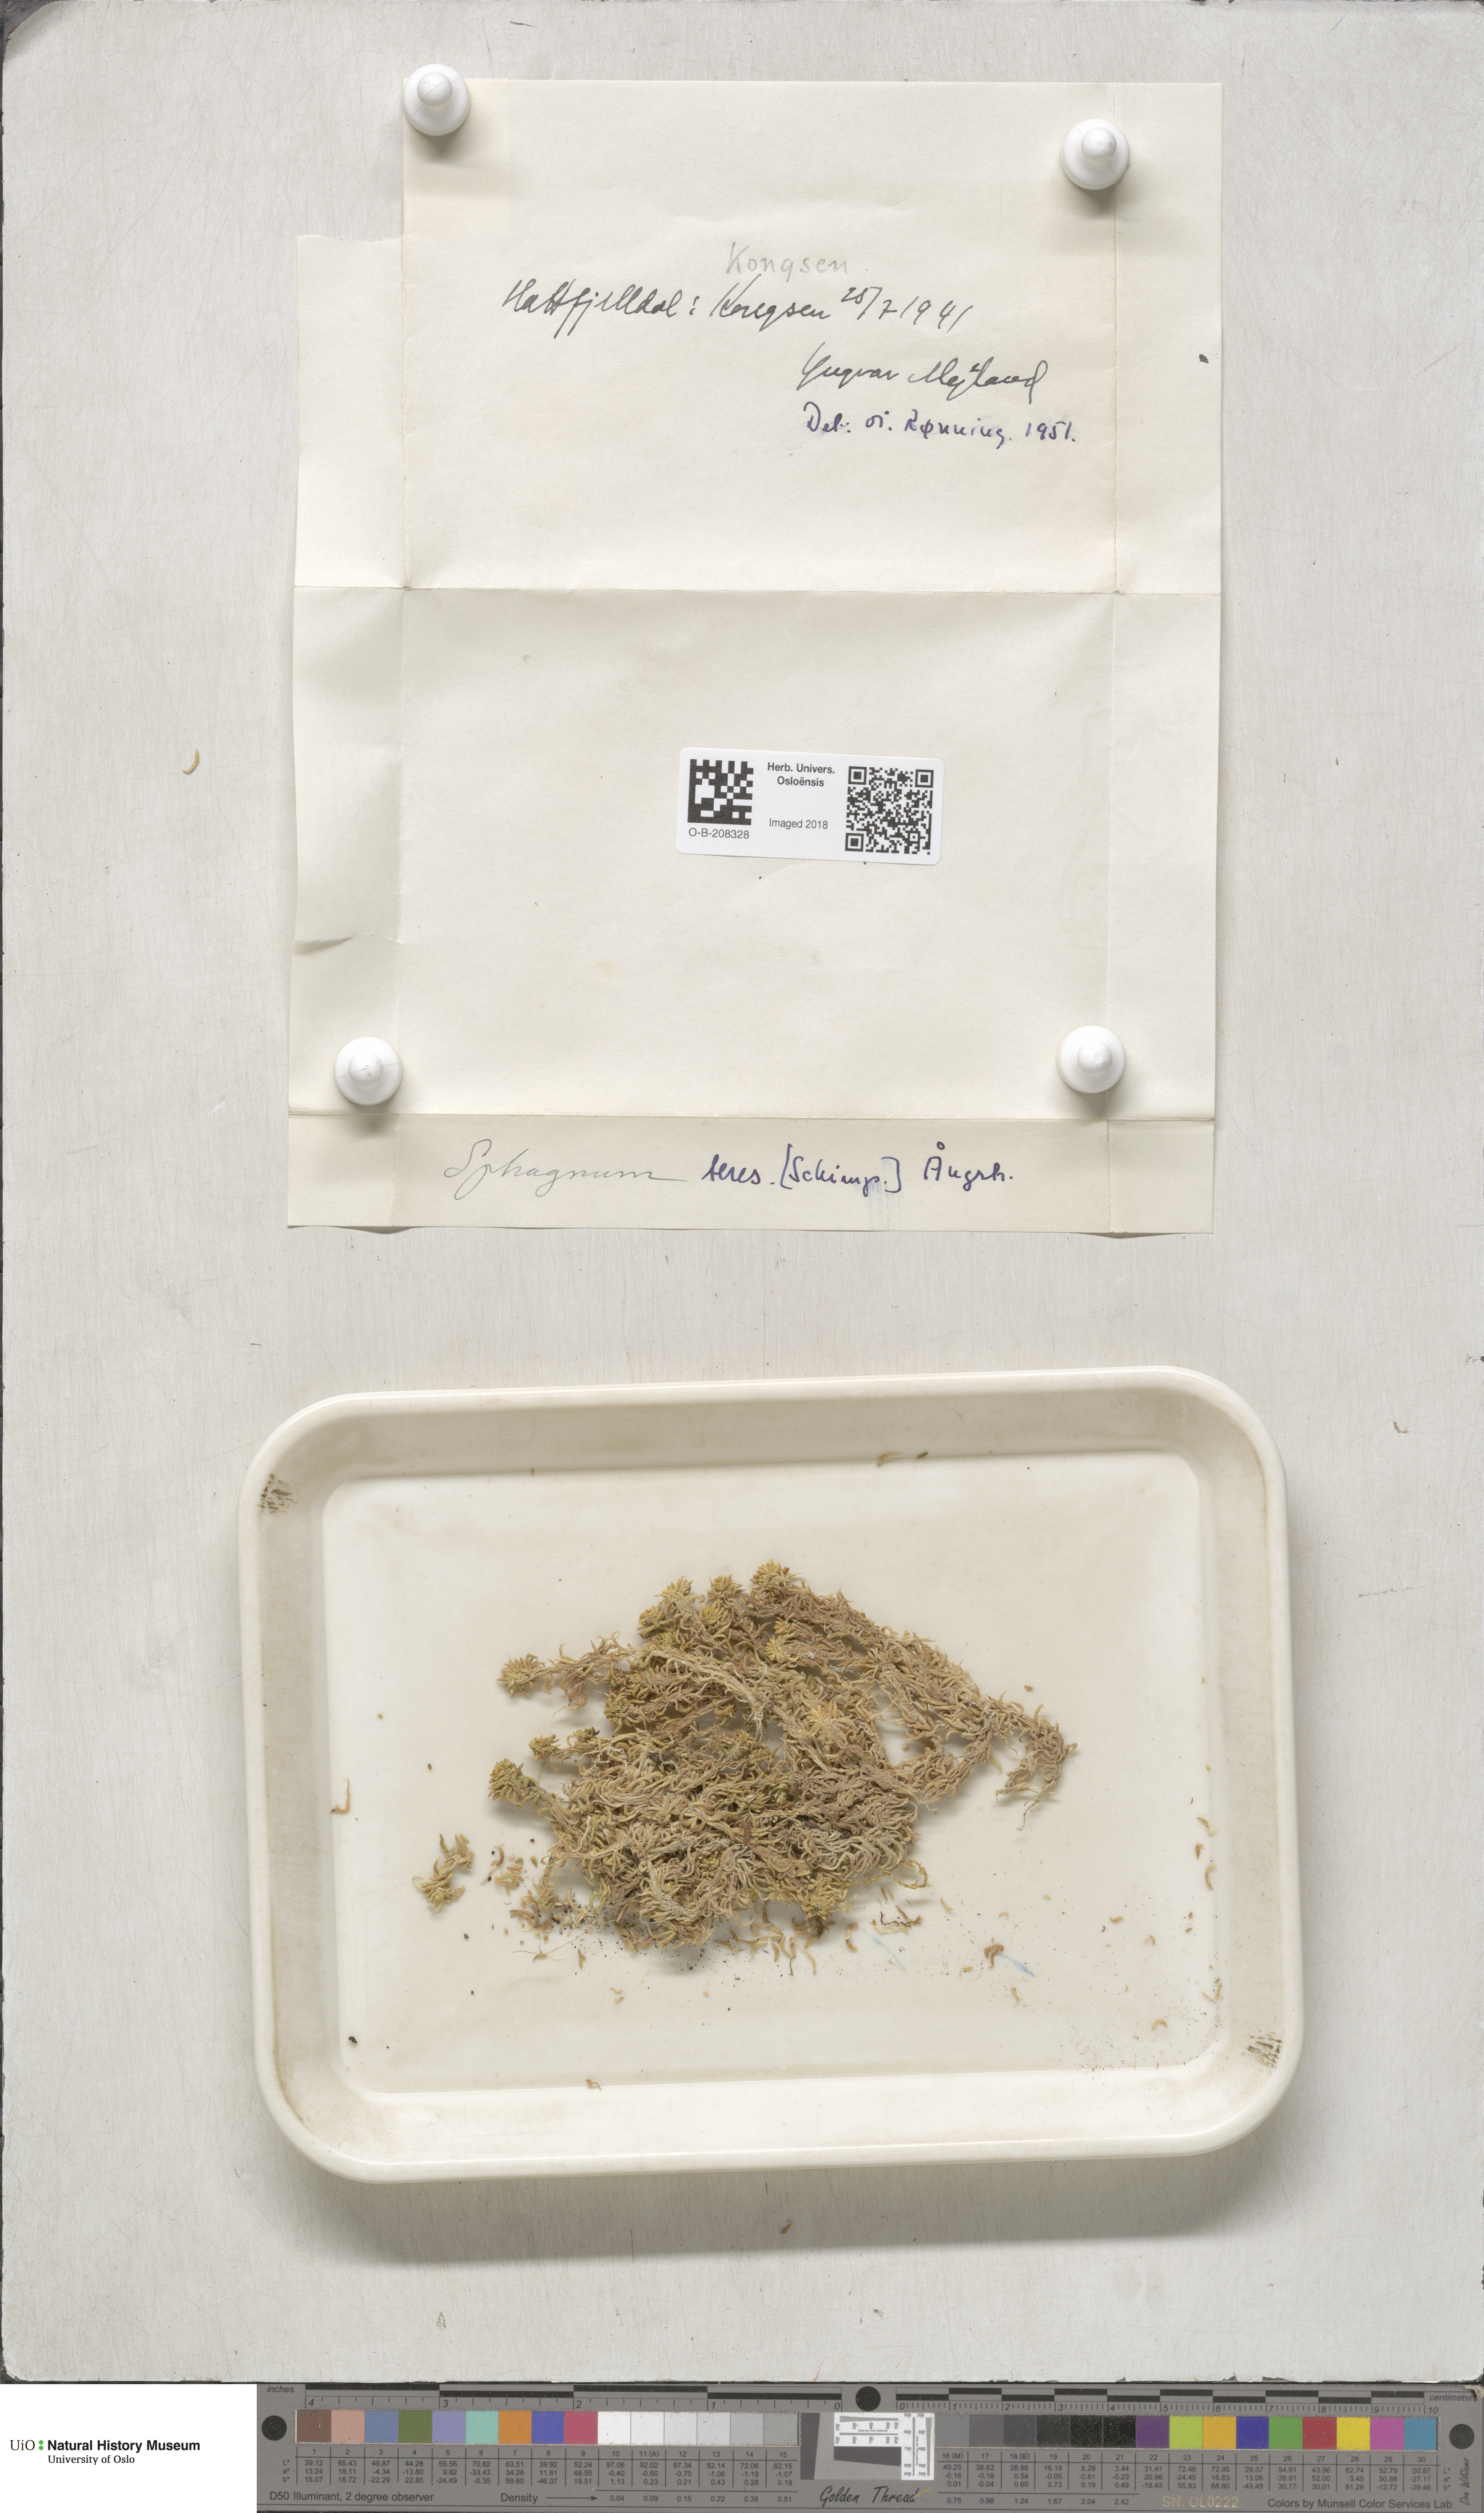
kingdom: Plantae
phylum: Bryophyta
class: Sphagnopsida
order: Sphagnales
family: Sphagnaceae
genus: Sphagnum
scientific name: Sphagnum teres
